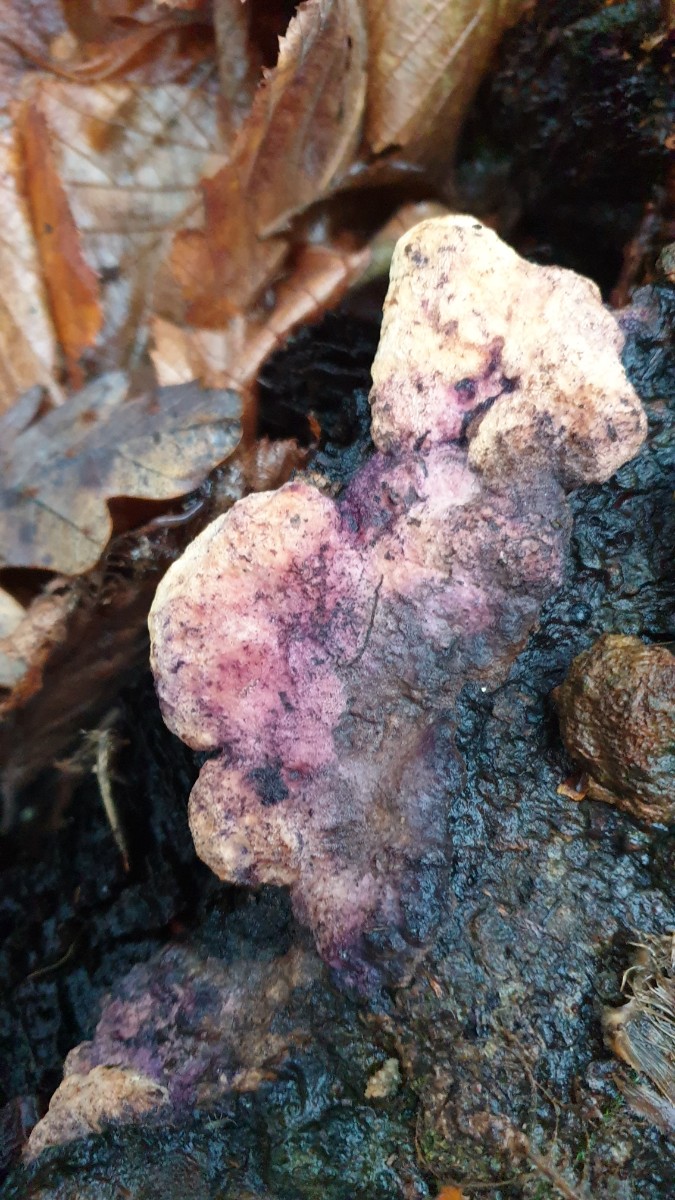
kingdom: Fungi
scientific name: Fungi
